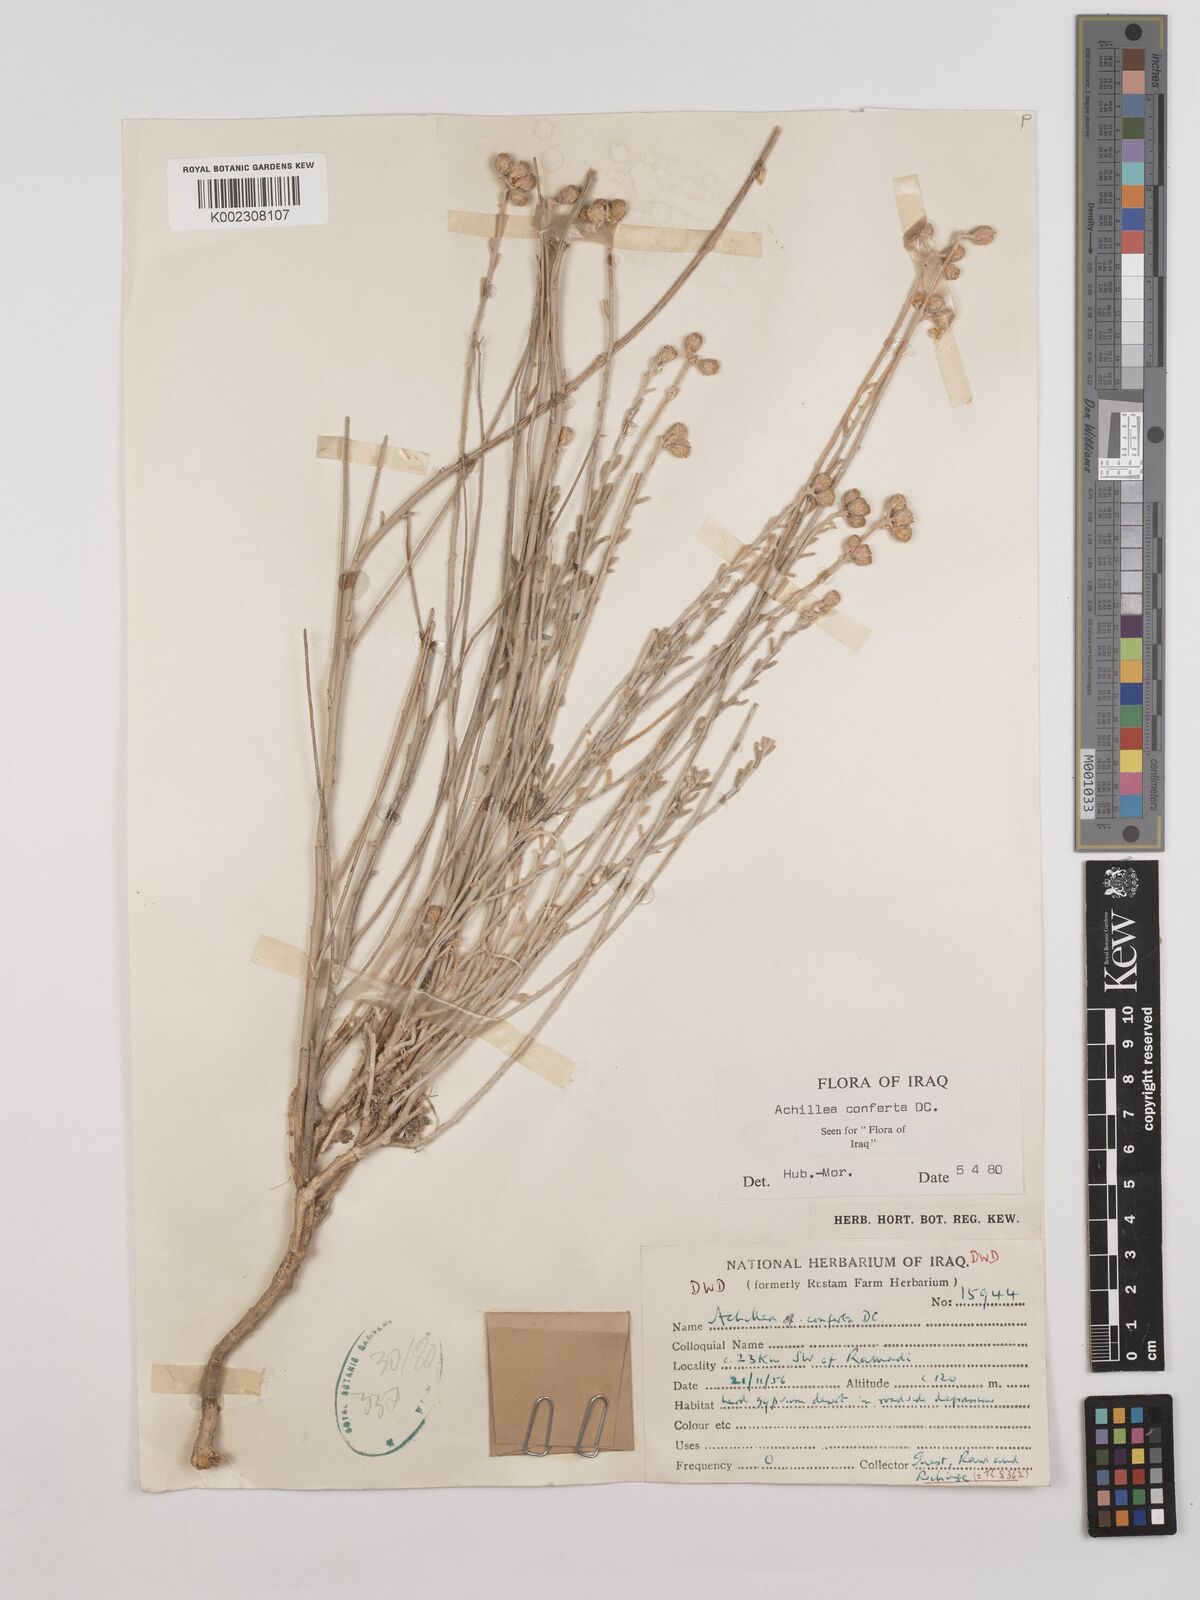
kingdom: Plantae
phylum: Tracheophyta
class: Magnoliopsida
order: Asterales
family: Asteraceae
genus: Achillea
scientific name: Achillea conferta
